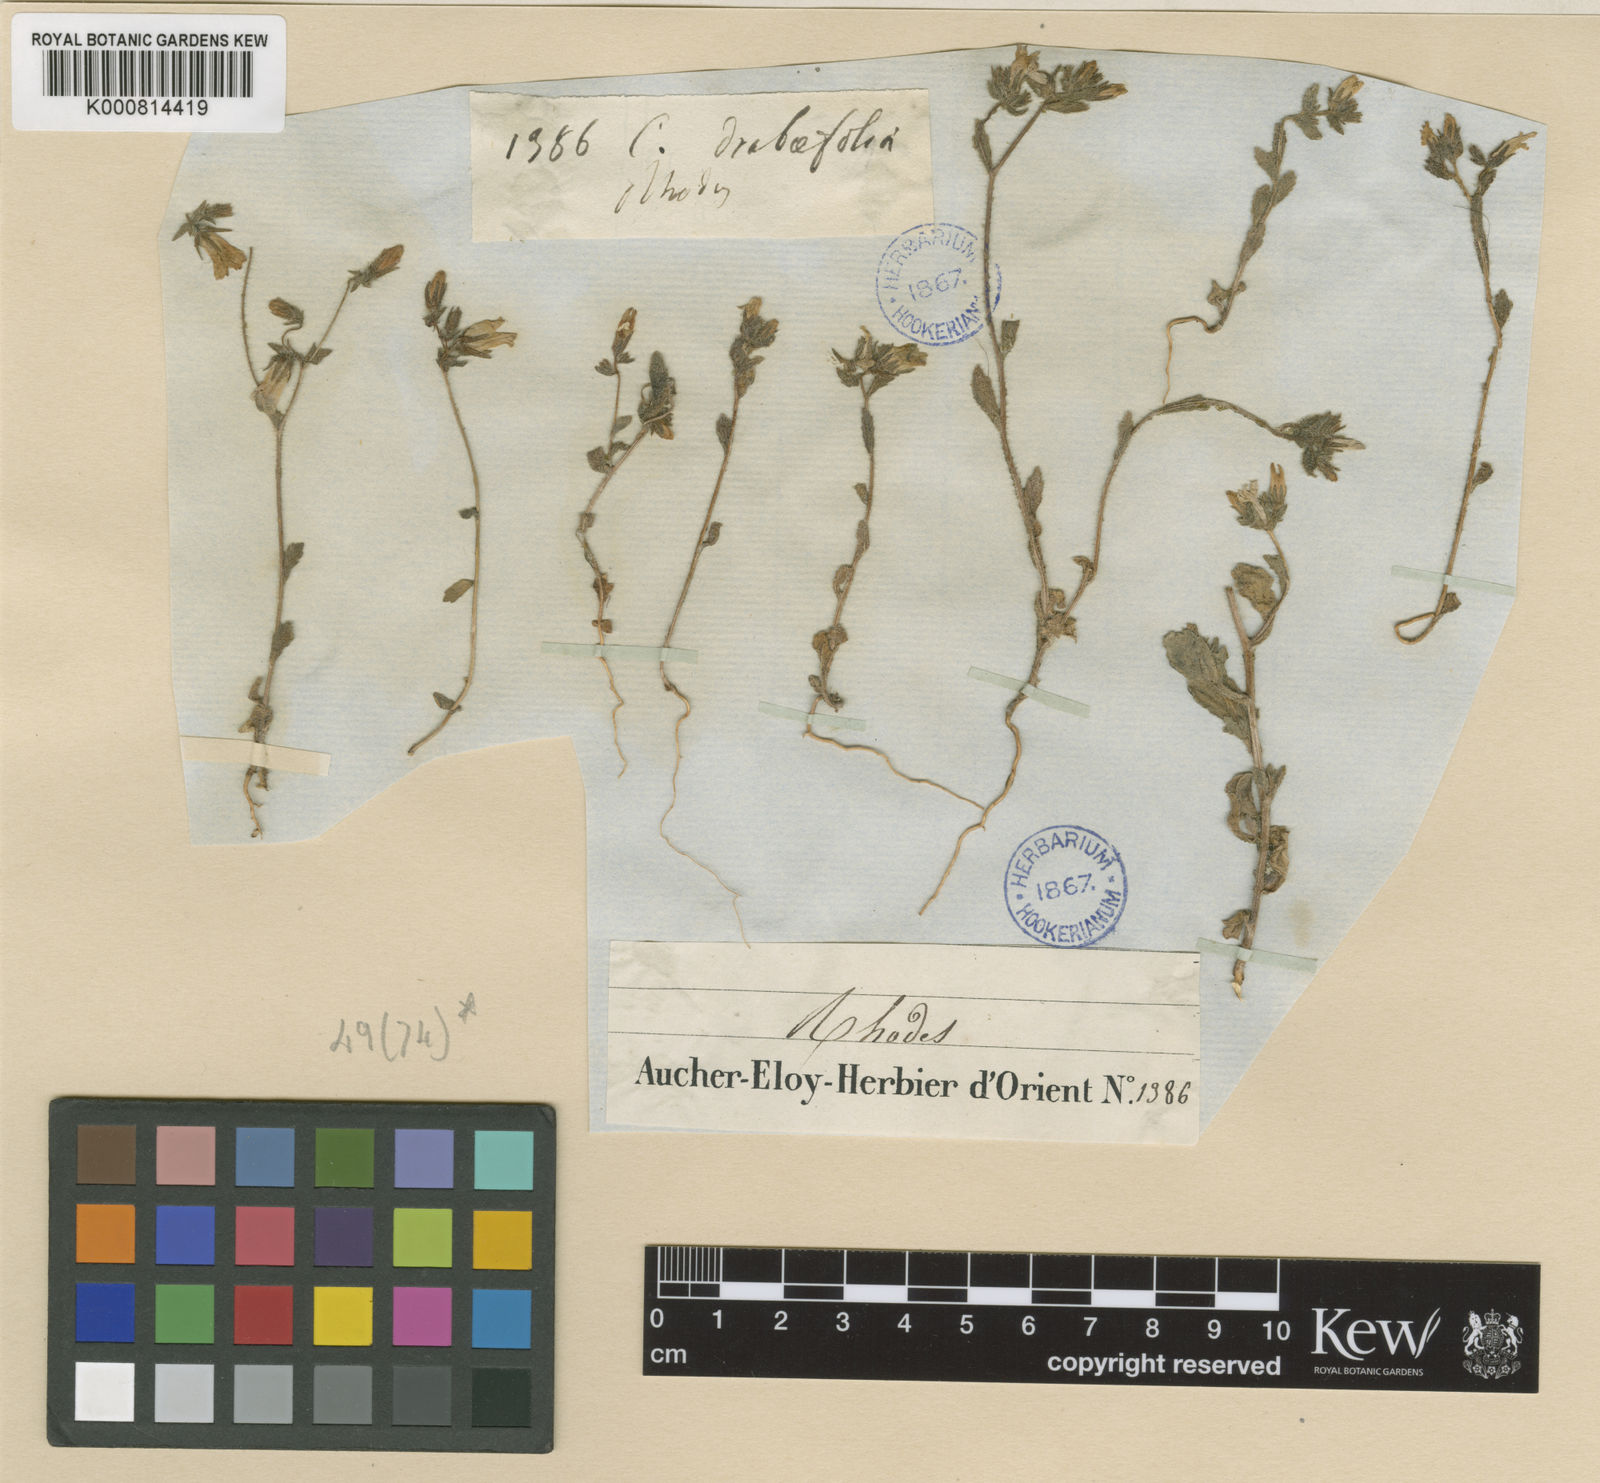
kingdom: Plantae
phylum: Tracheophyta
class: Magnoliopsida
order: Asterales
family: Campanulaceae
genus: Campanula
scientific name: Campanula podocarpa
